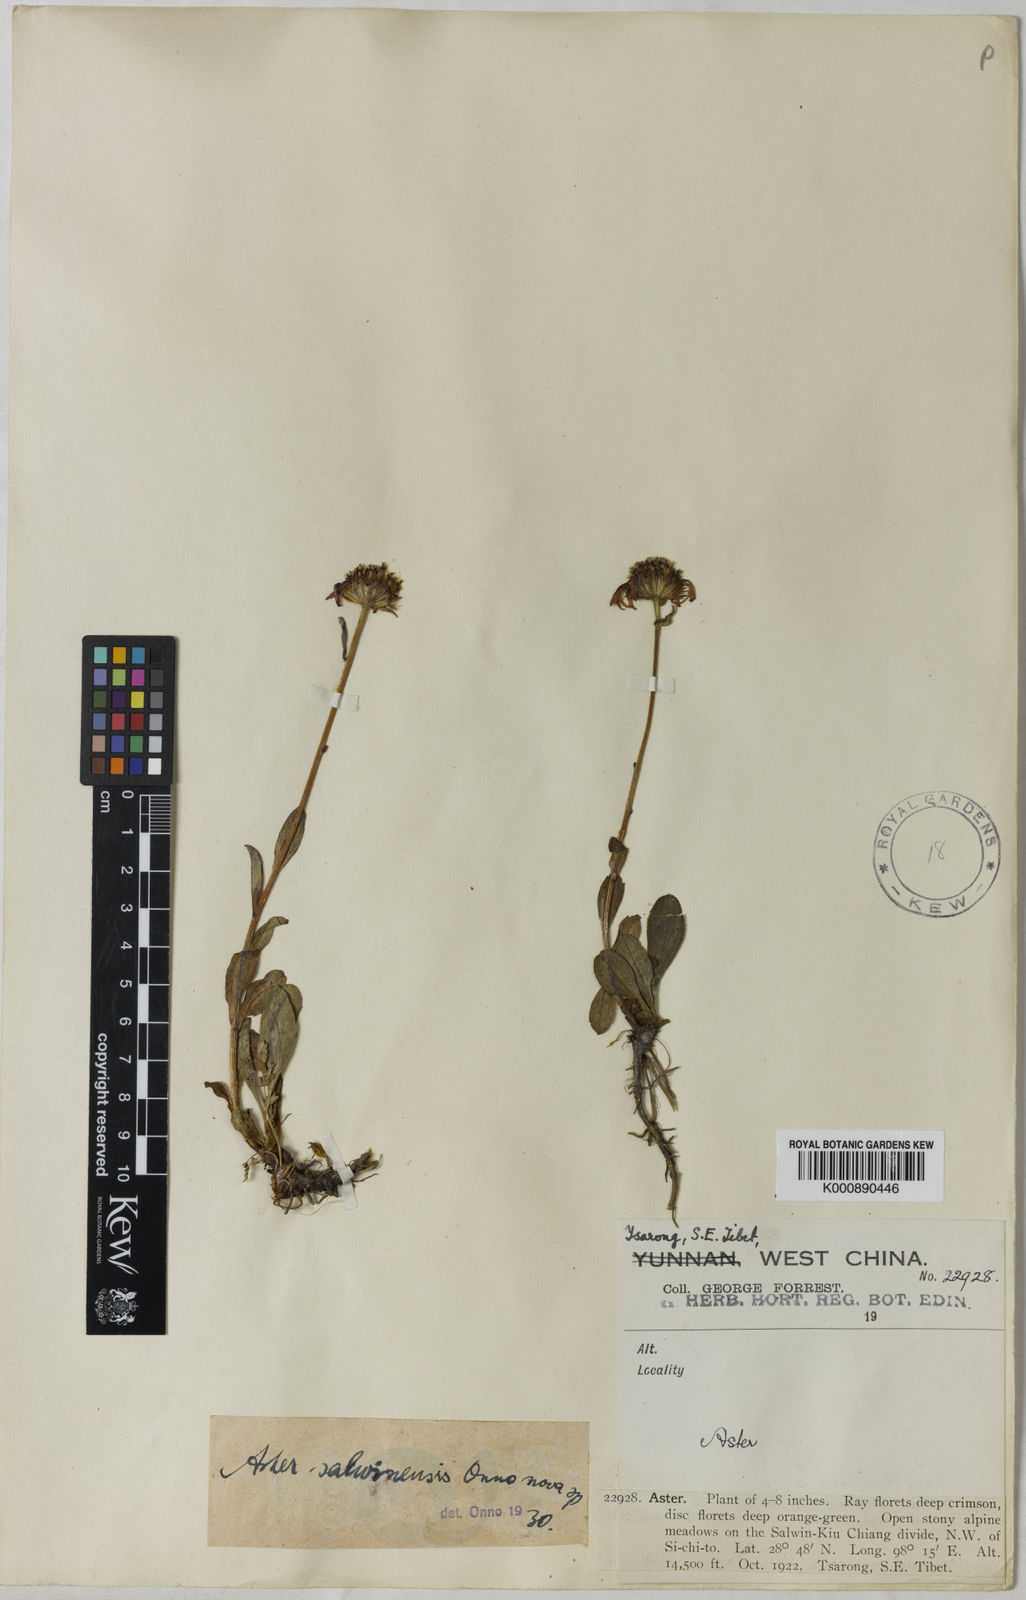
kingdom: Plantae
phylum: Tracheophyta
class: Magnoliopsida
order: Asterales
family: Asteraceae
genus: Tibetiodes
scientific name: Tibetiodes salwinensis
